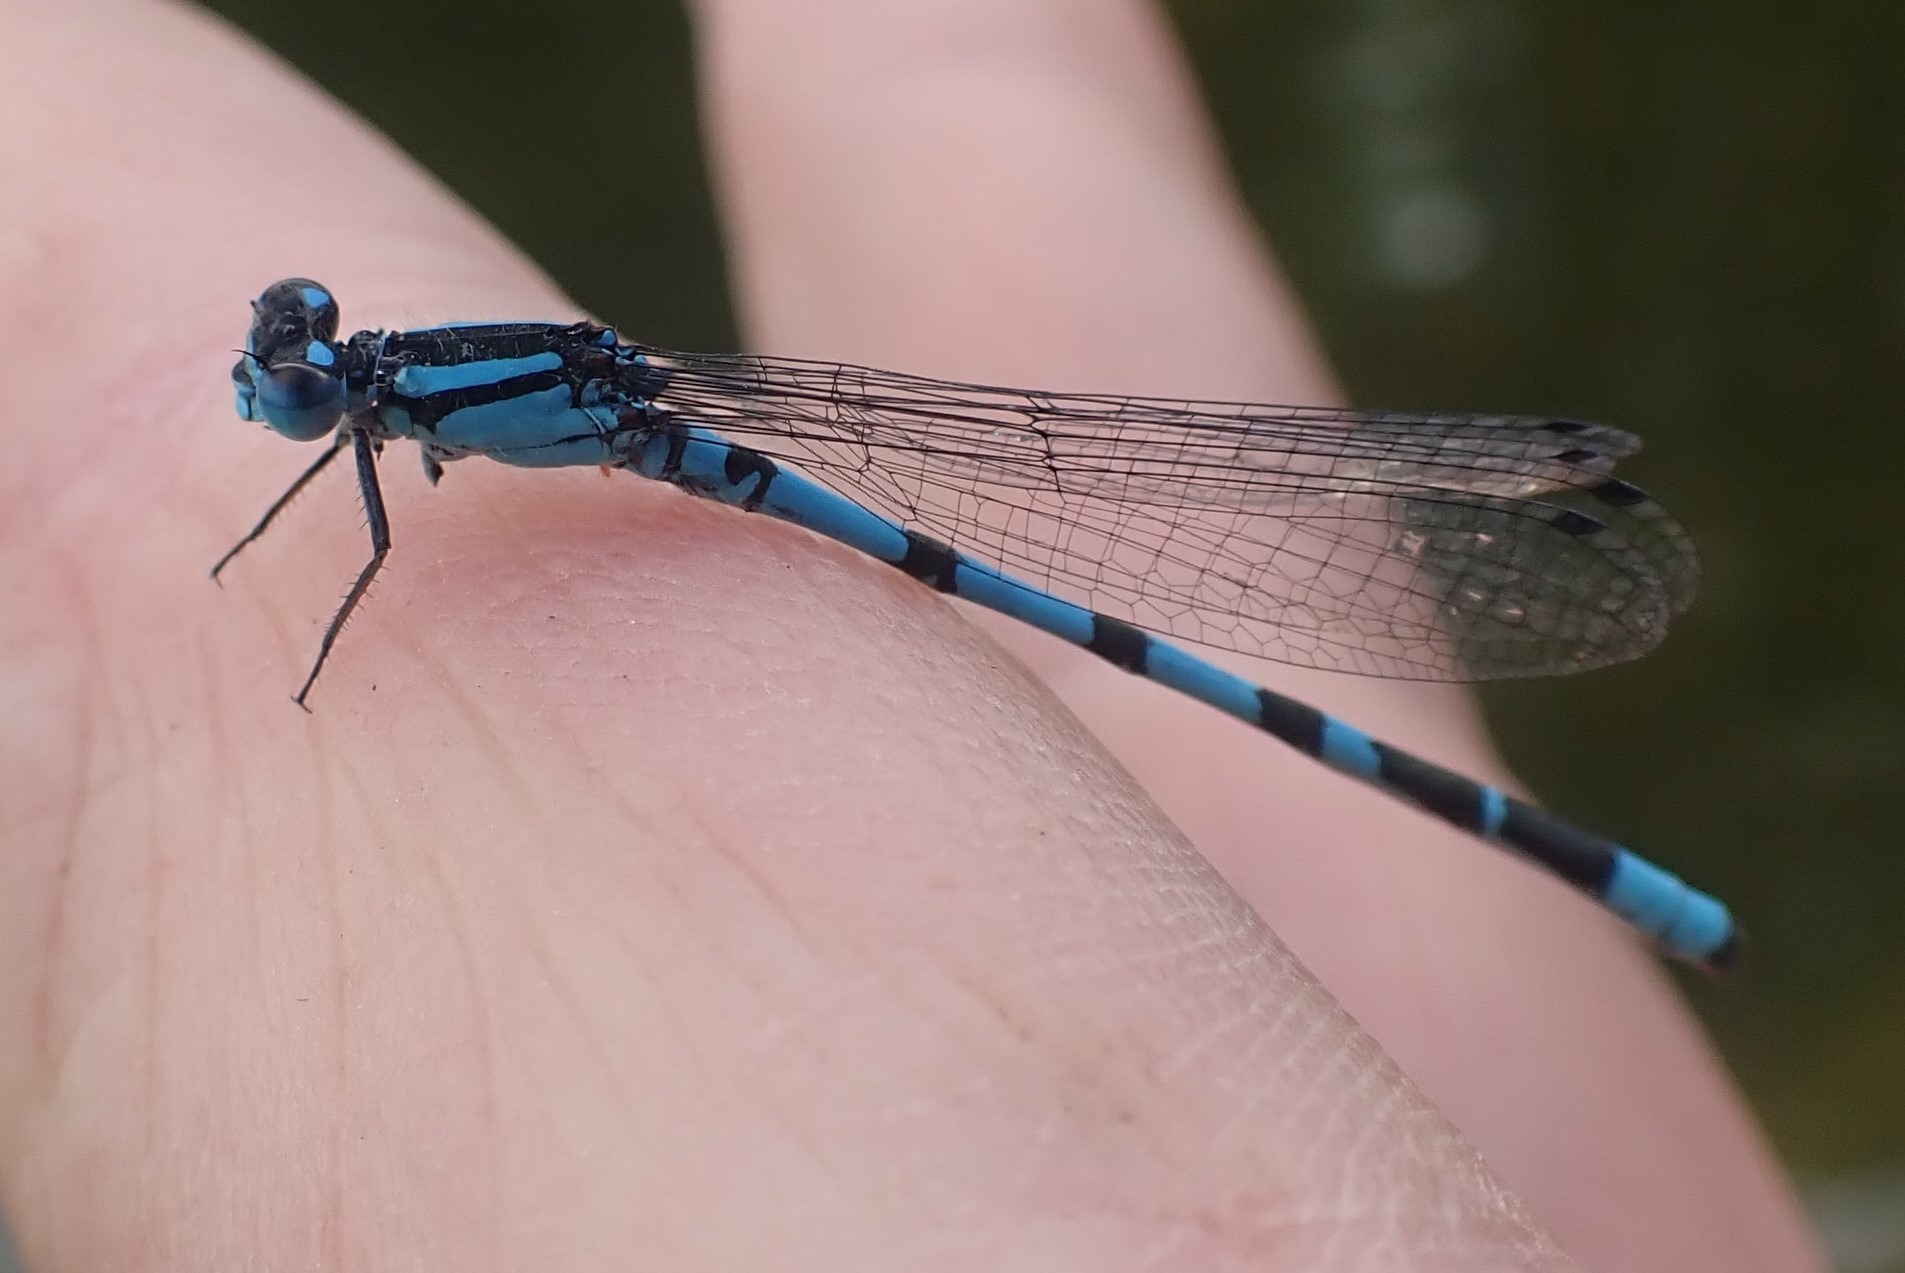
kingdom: Animalia
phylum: Arthropoda
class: Insecta
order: Odonata
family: Coenagrionidae
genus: Enallagma
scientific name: Enallagma cyathigerum
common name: Almindelig vandnymfe
